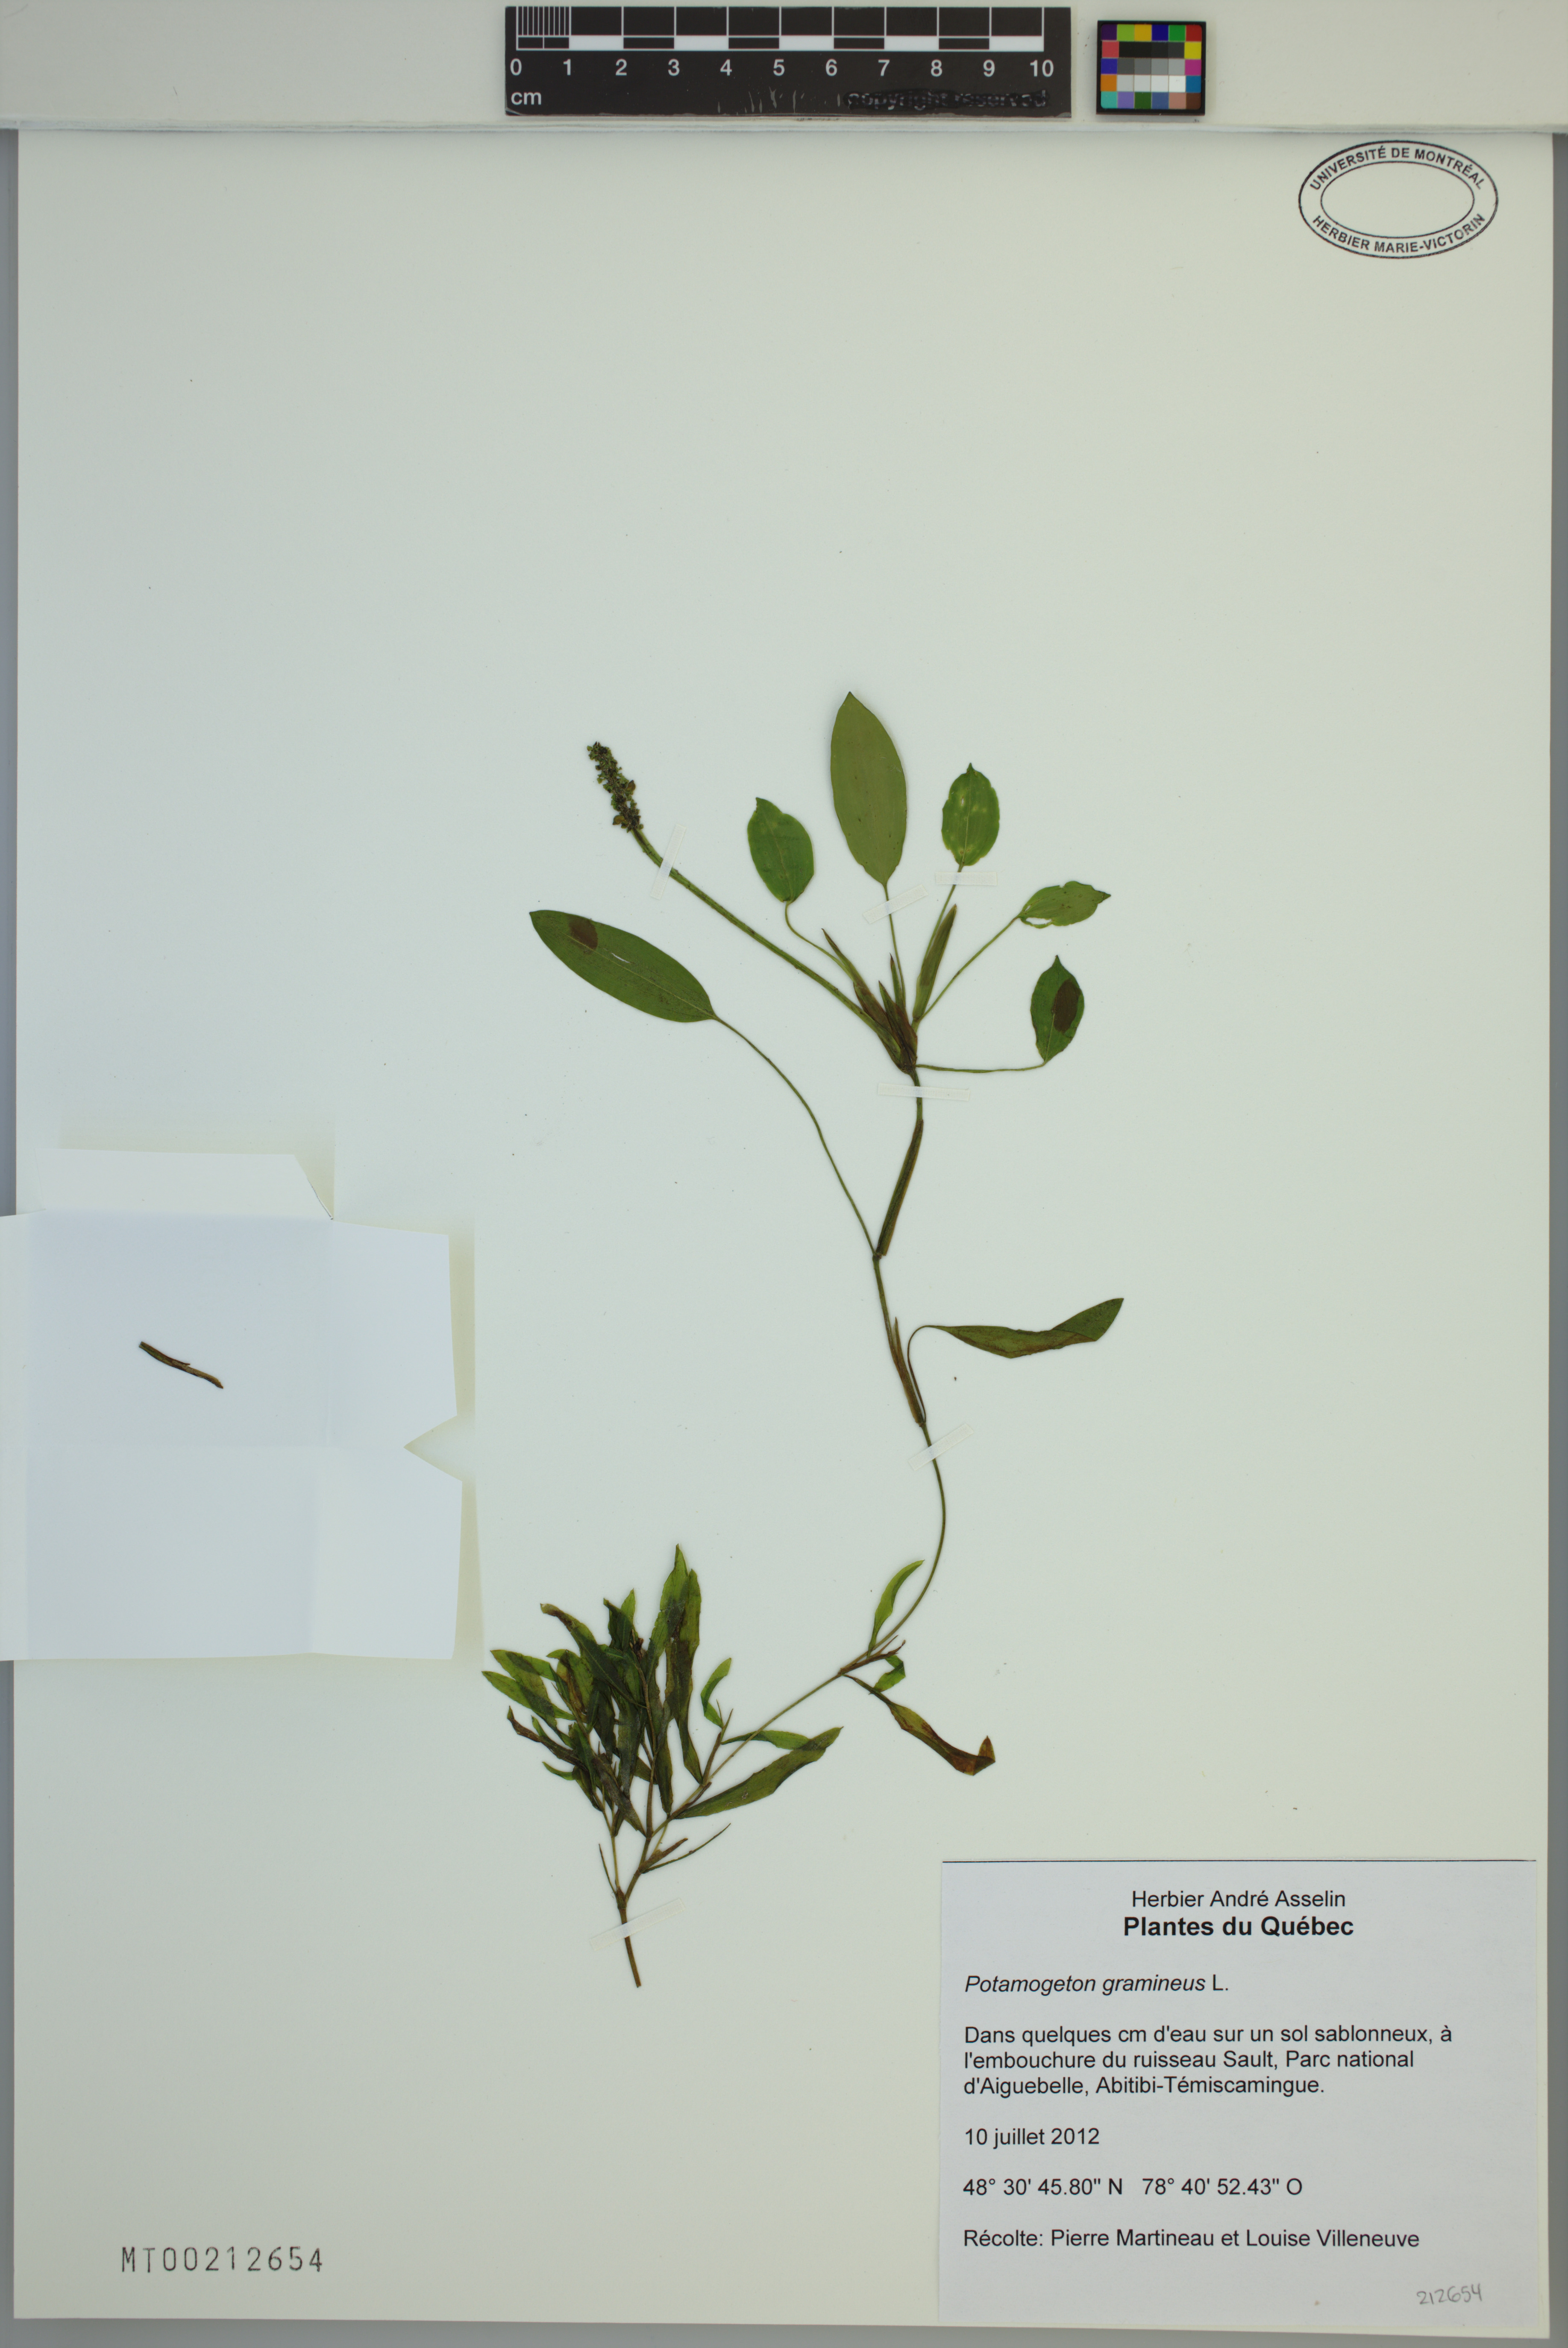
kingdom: Plantae
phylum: Tracheophyta
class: Liliopsida
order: Alismatales
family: Potamogetonaceae
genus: Potamogeton
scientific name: Potamogeton gramineus
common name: Various-leaved pondweed
